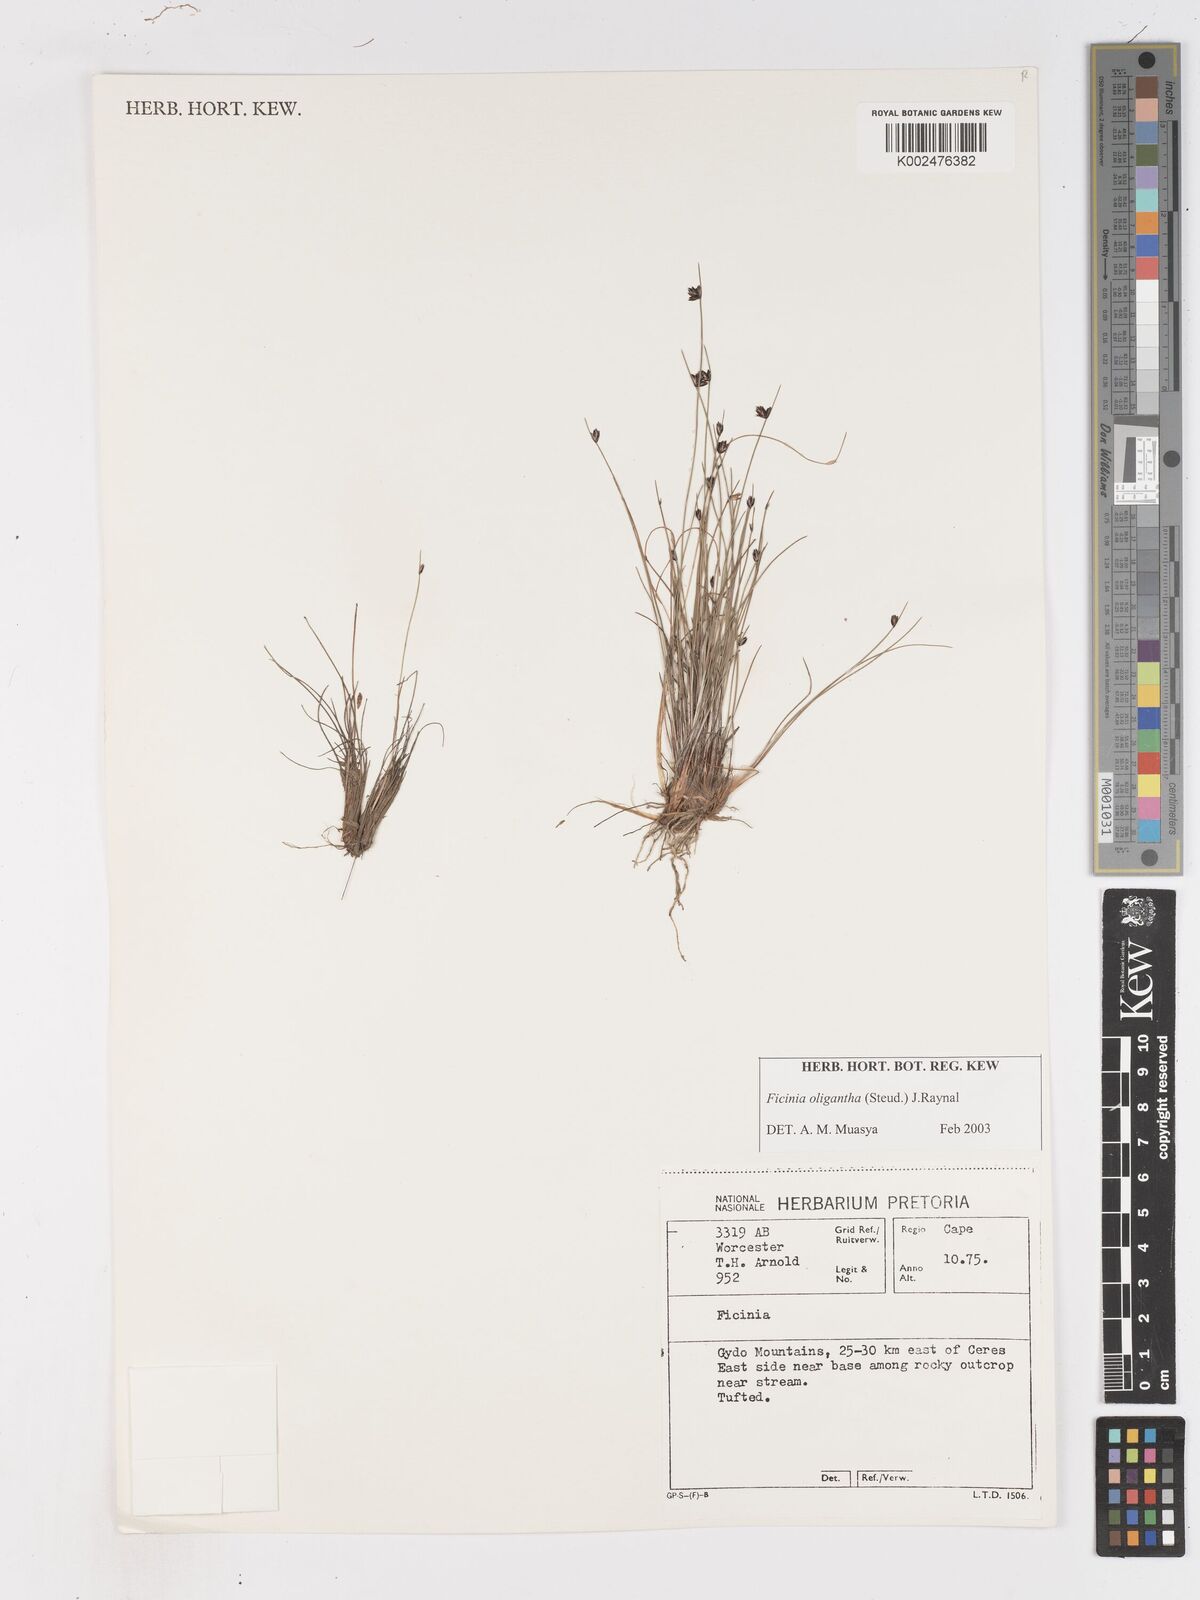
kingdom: Plantae
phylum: Tracheophyta
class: Liliopsida
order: Poales
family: Cyperaceae
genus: Ficinia
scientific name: Ficinia oligantha
